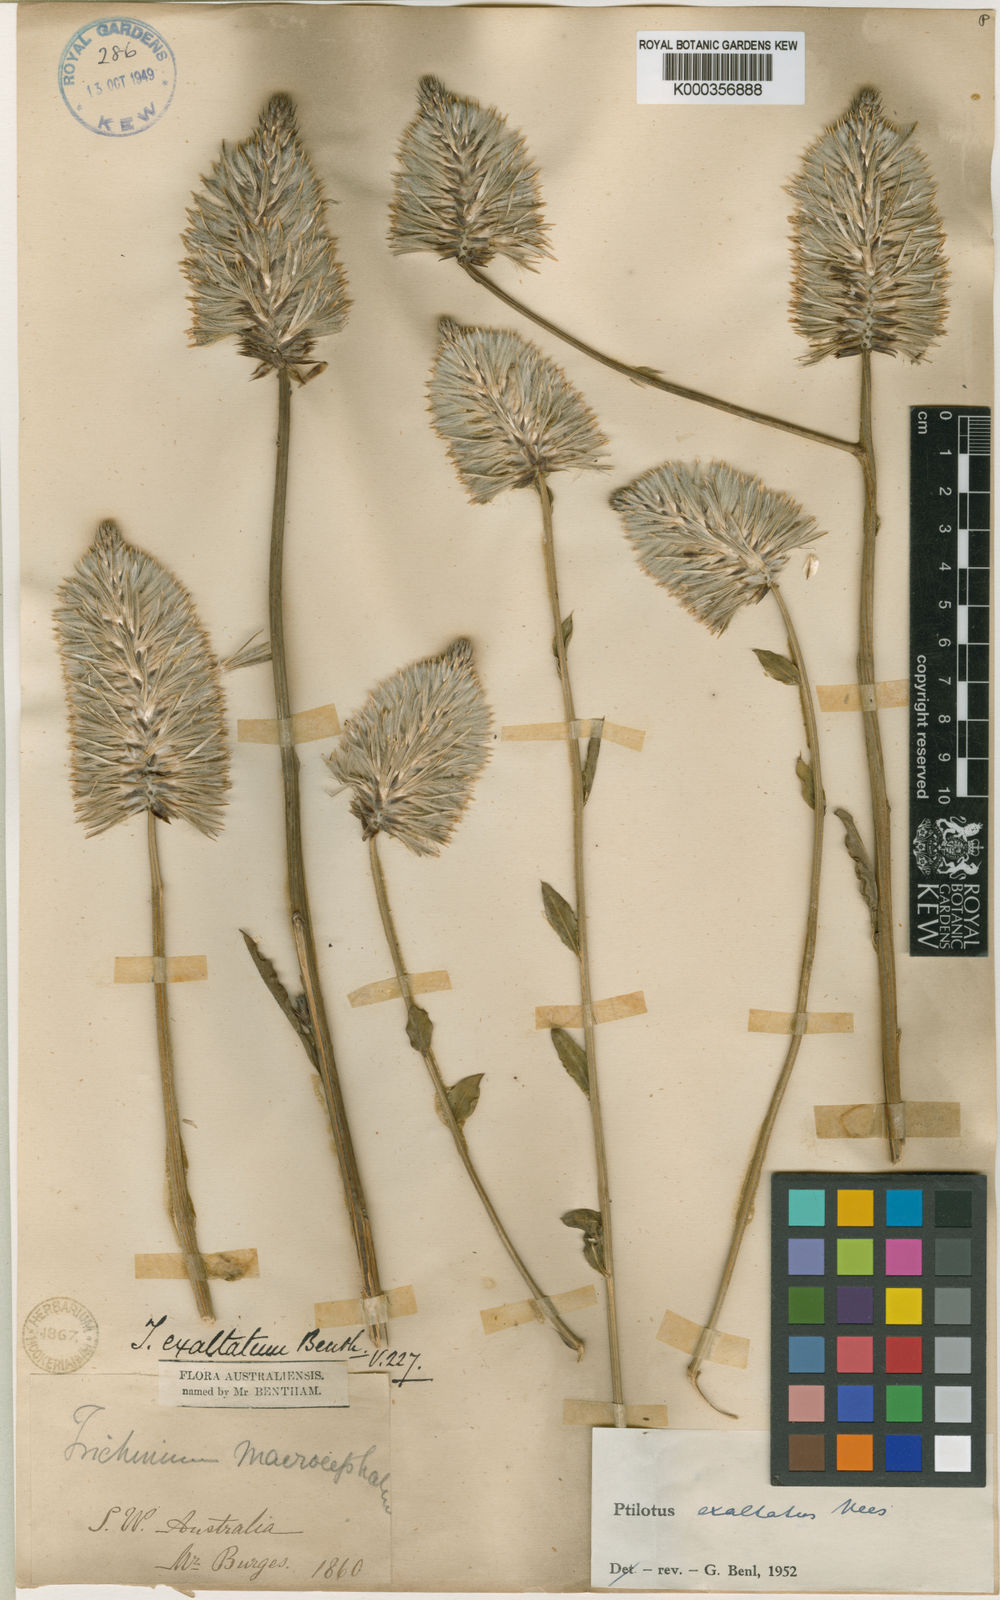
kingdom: Plantae
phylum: Tracheophyta
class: Magnoliopsida
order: Caryophyllales
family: Amaranthaceae
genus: Ptilotus
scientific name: Ptilotus exaltatus
